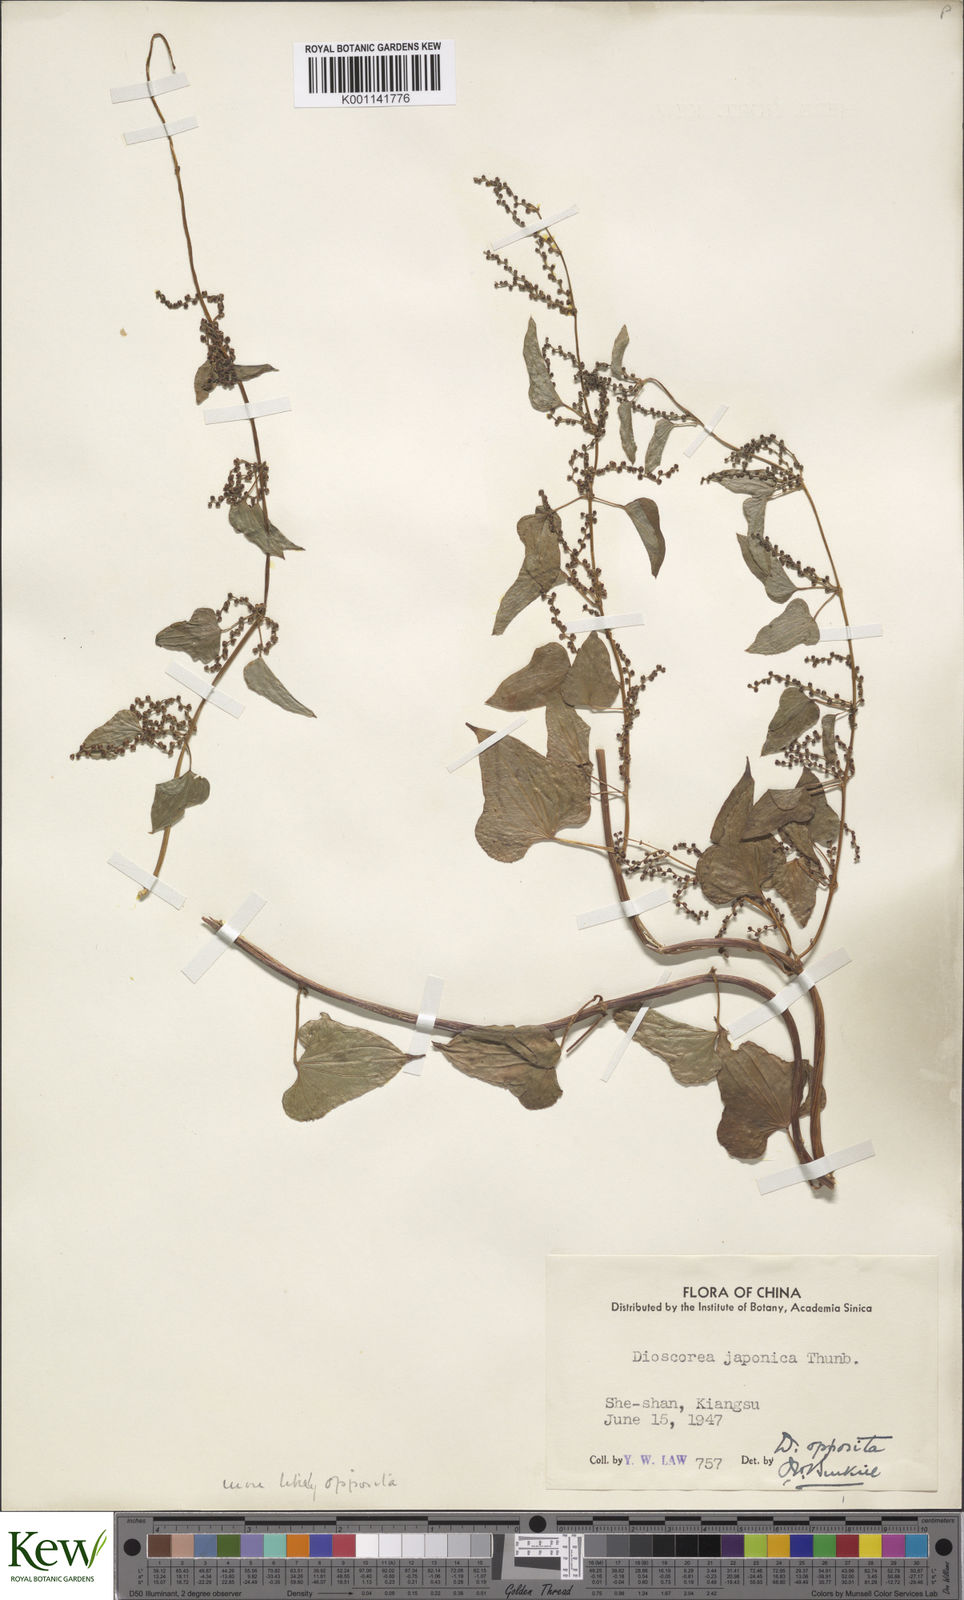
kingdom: Plantae
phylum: Tracheophyta
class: Liliopsida
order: Dioscoreales
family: Dioscoreaceae
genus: Dioscorea
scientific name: Dioscorea oppositifolia
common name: Chinese yam
